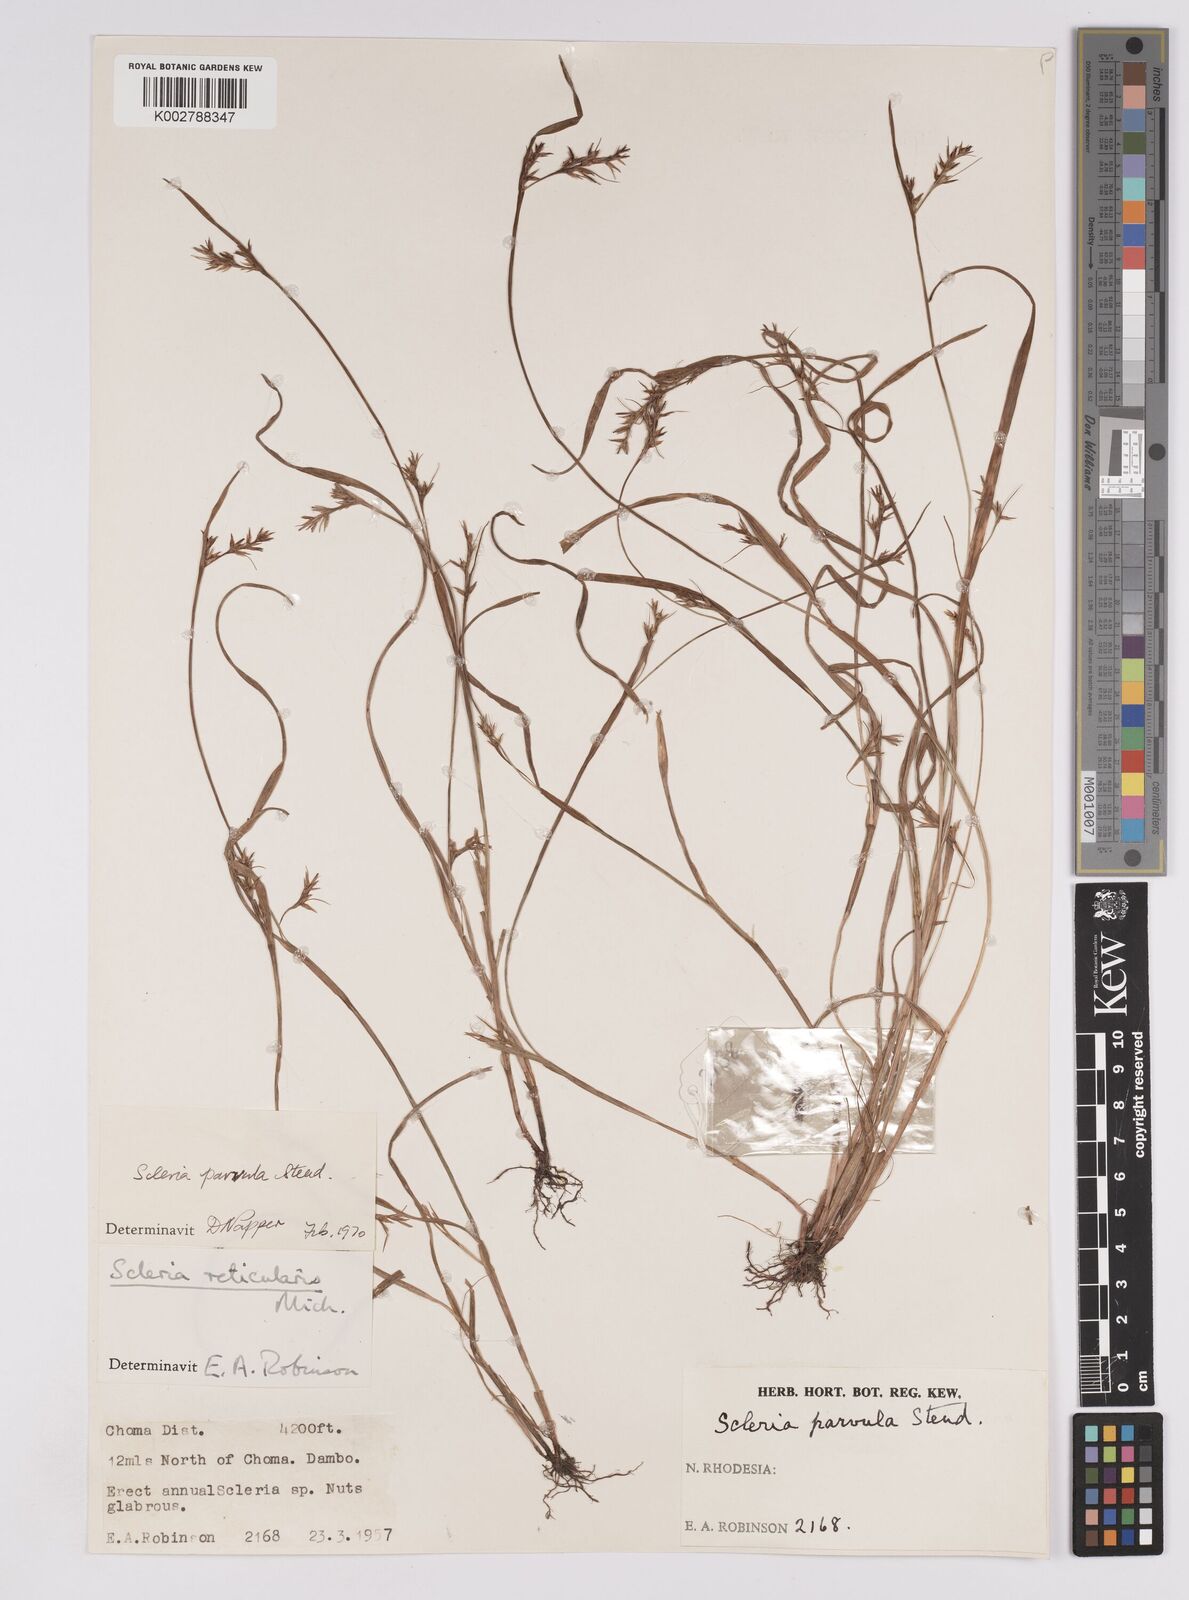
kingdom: Plantae
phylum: Tracheophyta
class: Liliopsida
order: Poales
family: Cyperaceae
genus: Scleria
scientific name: Scleria parvula
